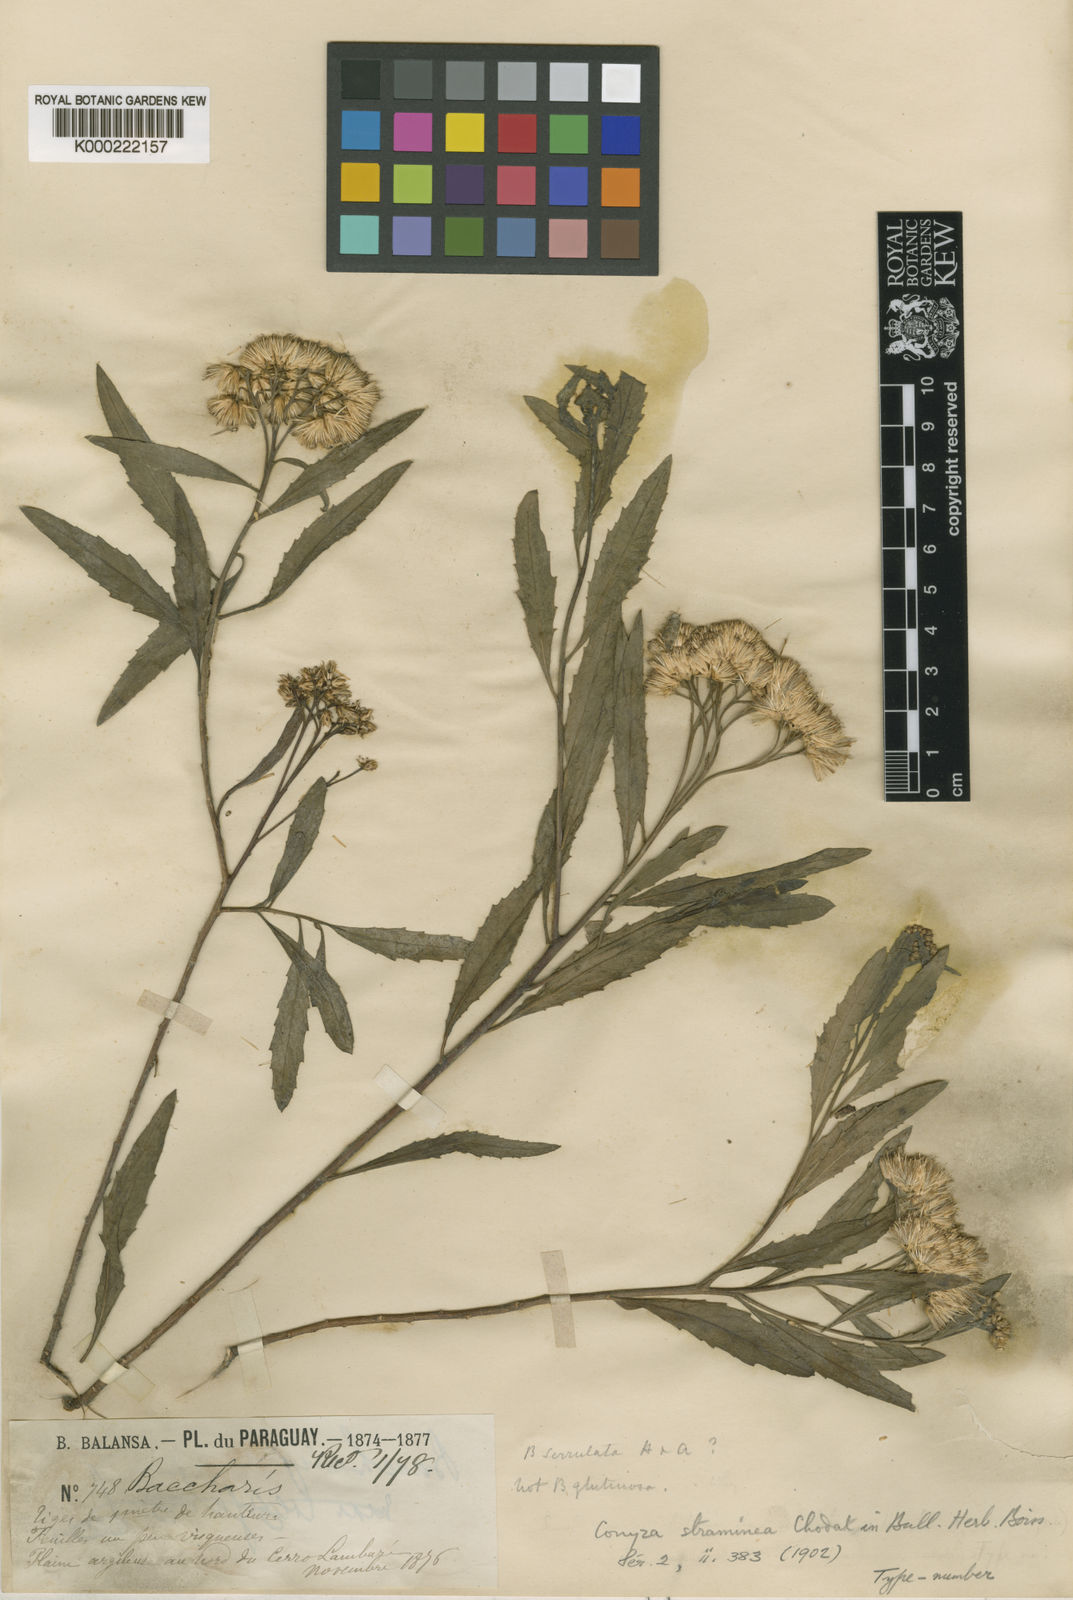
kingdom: Plantae
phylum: Tracheophyta
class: Magnoliopsida
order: Asterales
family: Asteraceae
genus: Tessaria
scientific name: Tessaria dodonaeifolia
